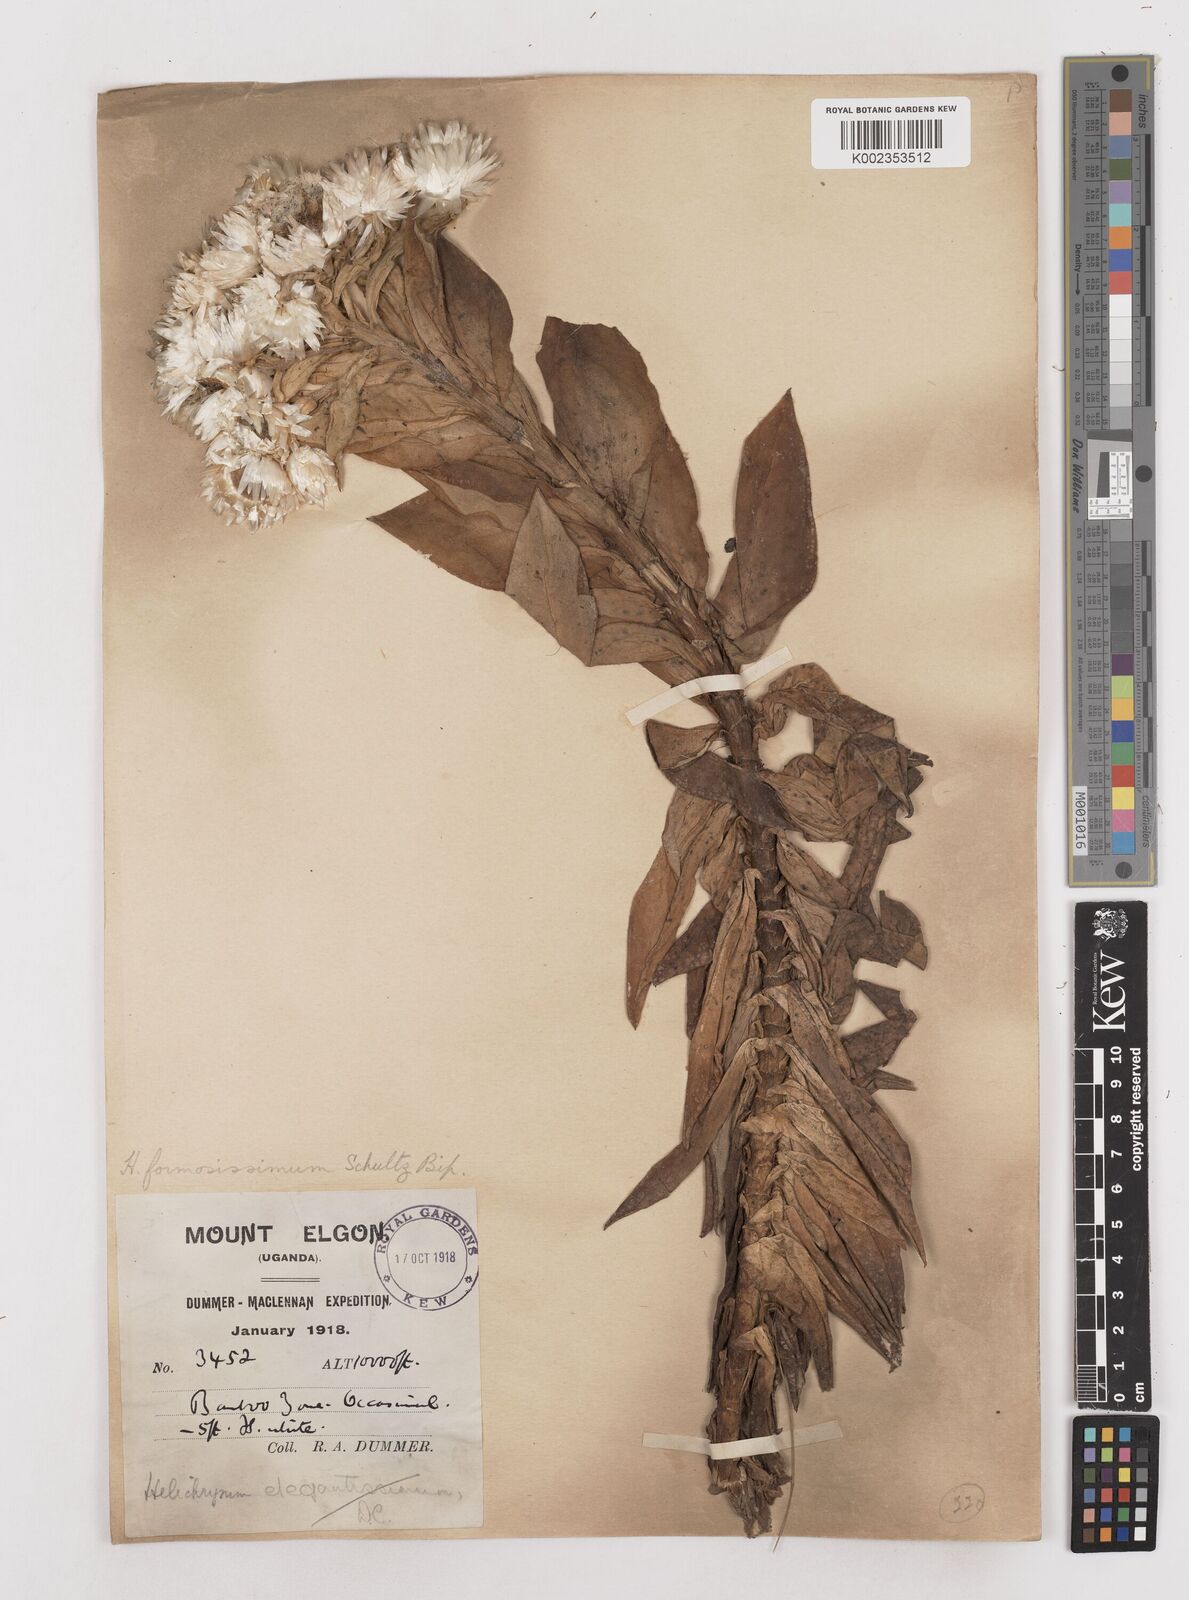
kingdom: Plantae
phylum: Tracheophyta
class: Magnoliopsida
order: Asterales
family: Asteraceae
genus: Helichrysum
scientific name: Helichrysum formosissimum
